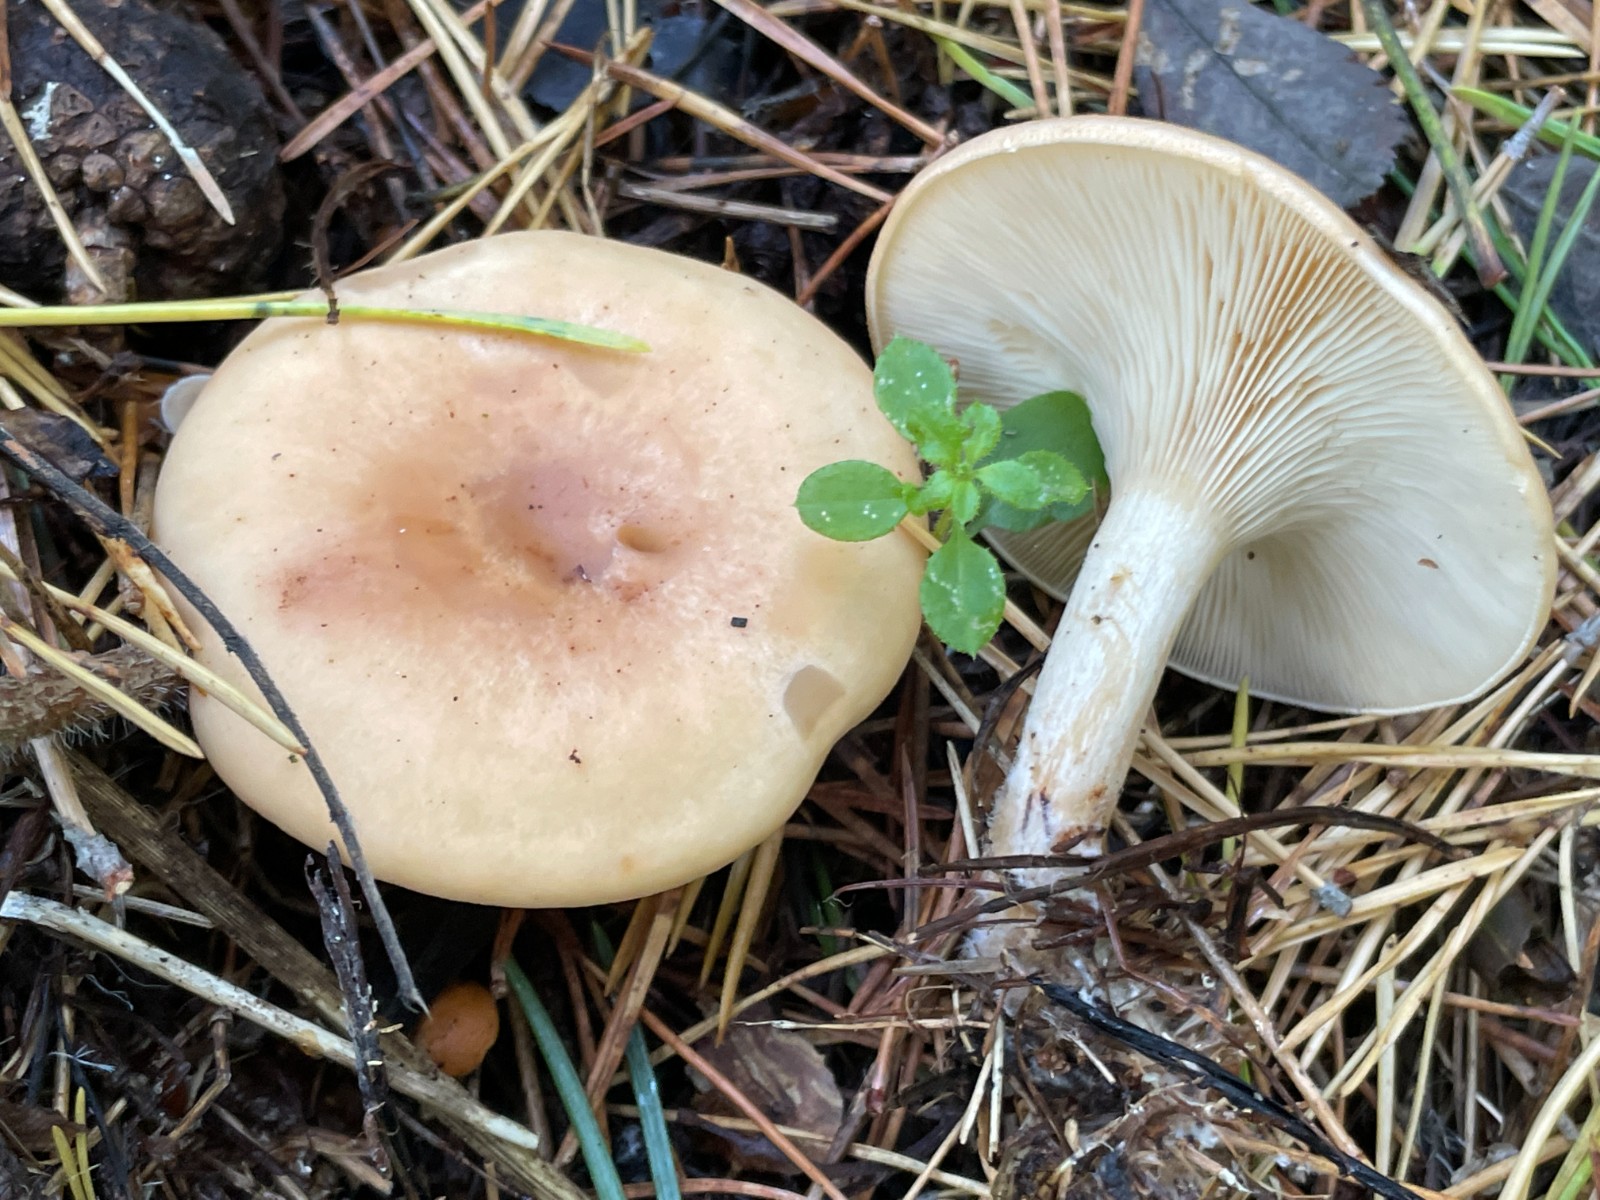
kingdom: Fungi
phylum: Basidiomycota
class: Agaricomycetes
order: Agaricales
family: Tricholomataceae
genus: Paralepista
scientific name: Paralepista flaccida
